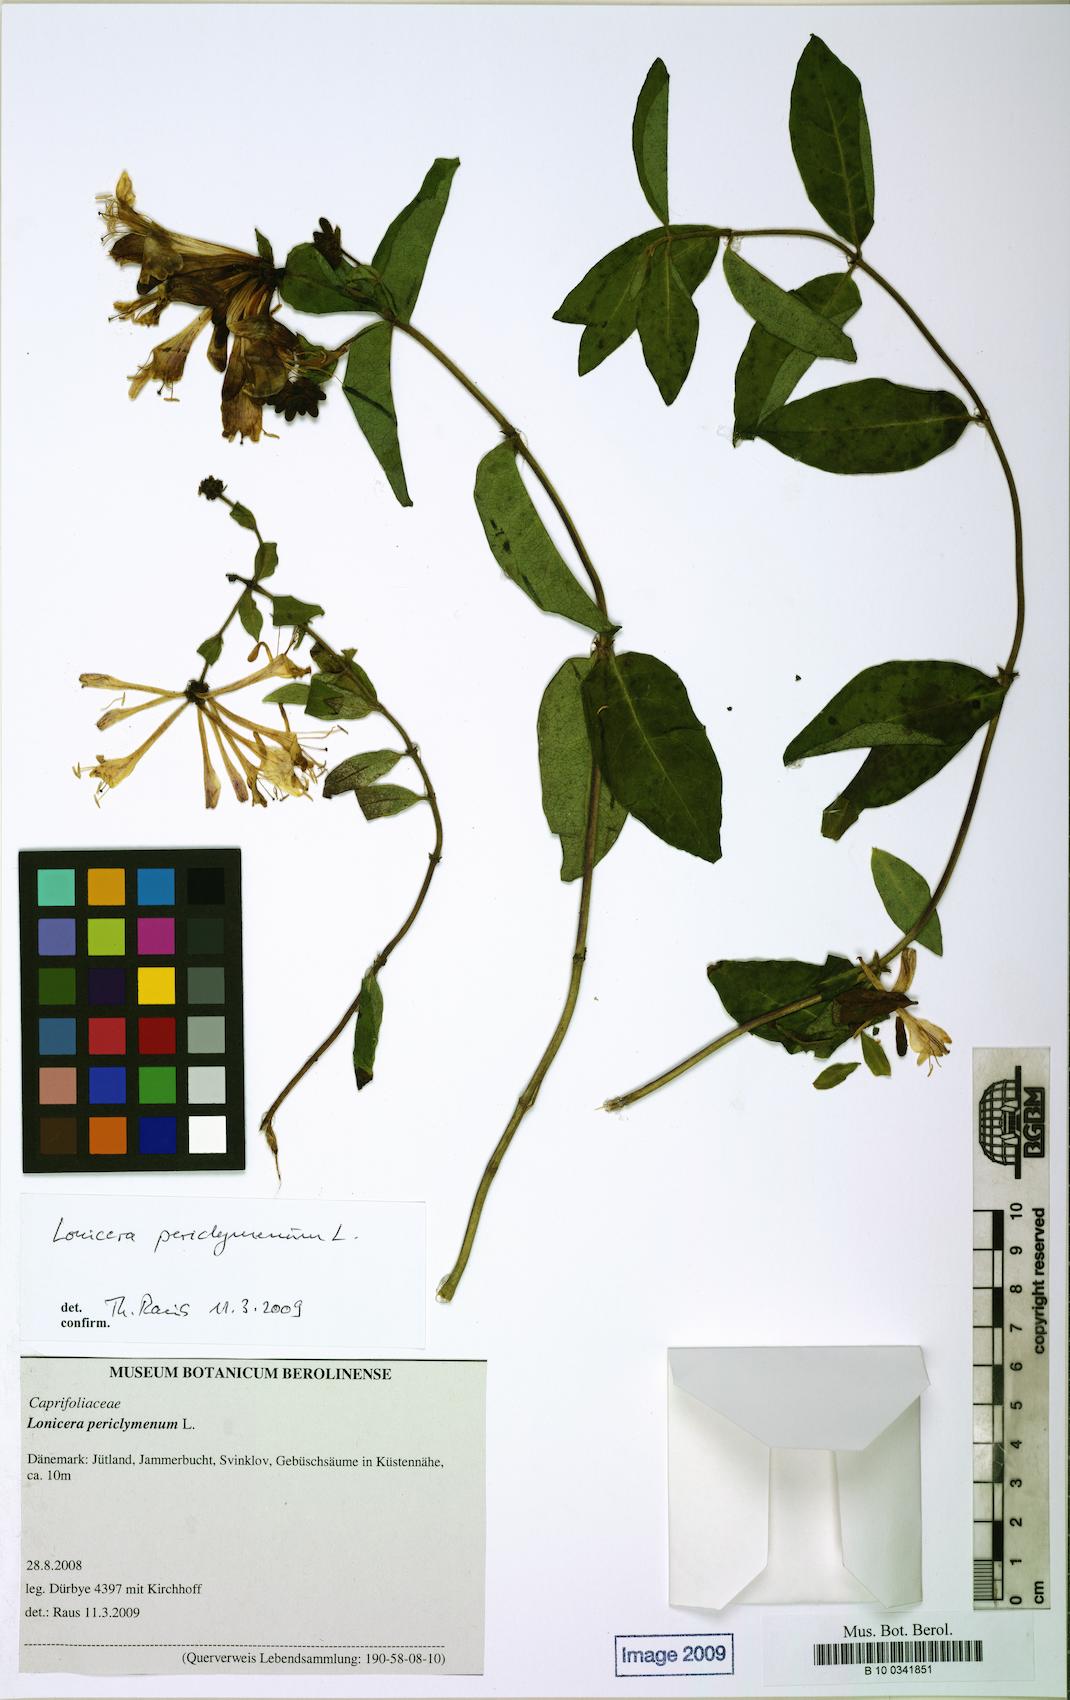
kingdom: Plantae
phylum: Tracheophyta
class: Magnoliopsida
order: Dipsacales
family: Caprifoliaceae
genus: Lonicera
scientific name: Lonicera periclymenum
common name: European honeysuckle
